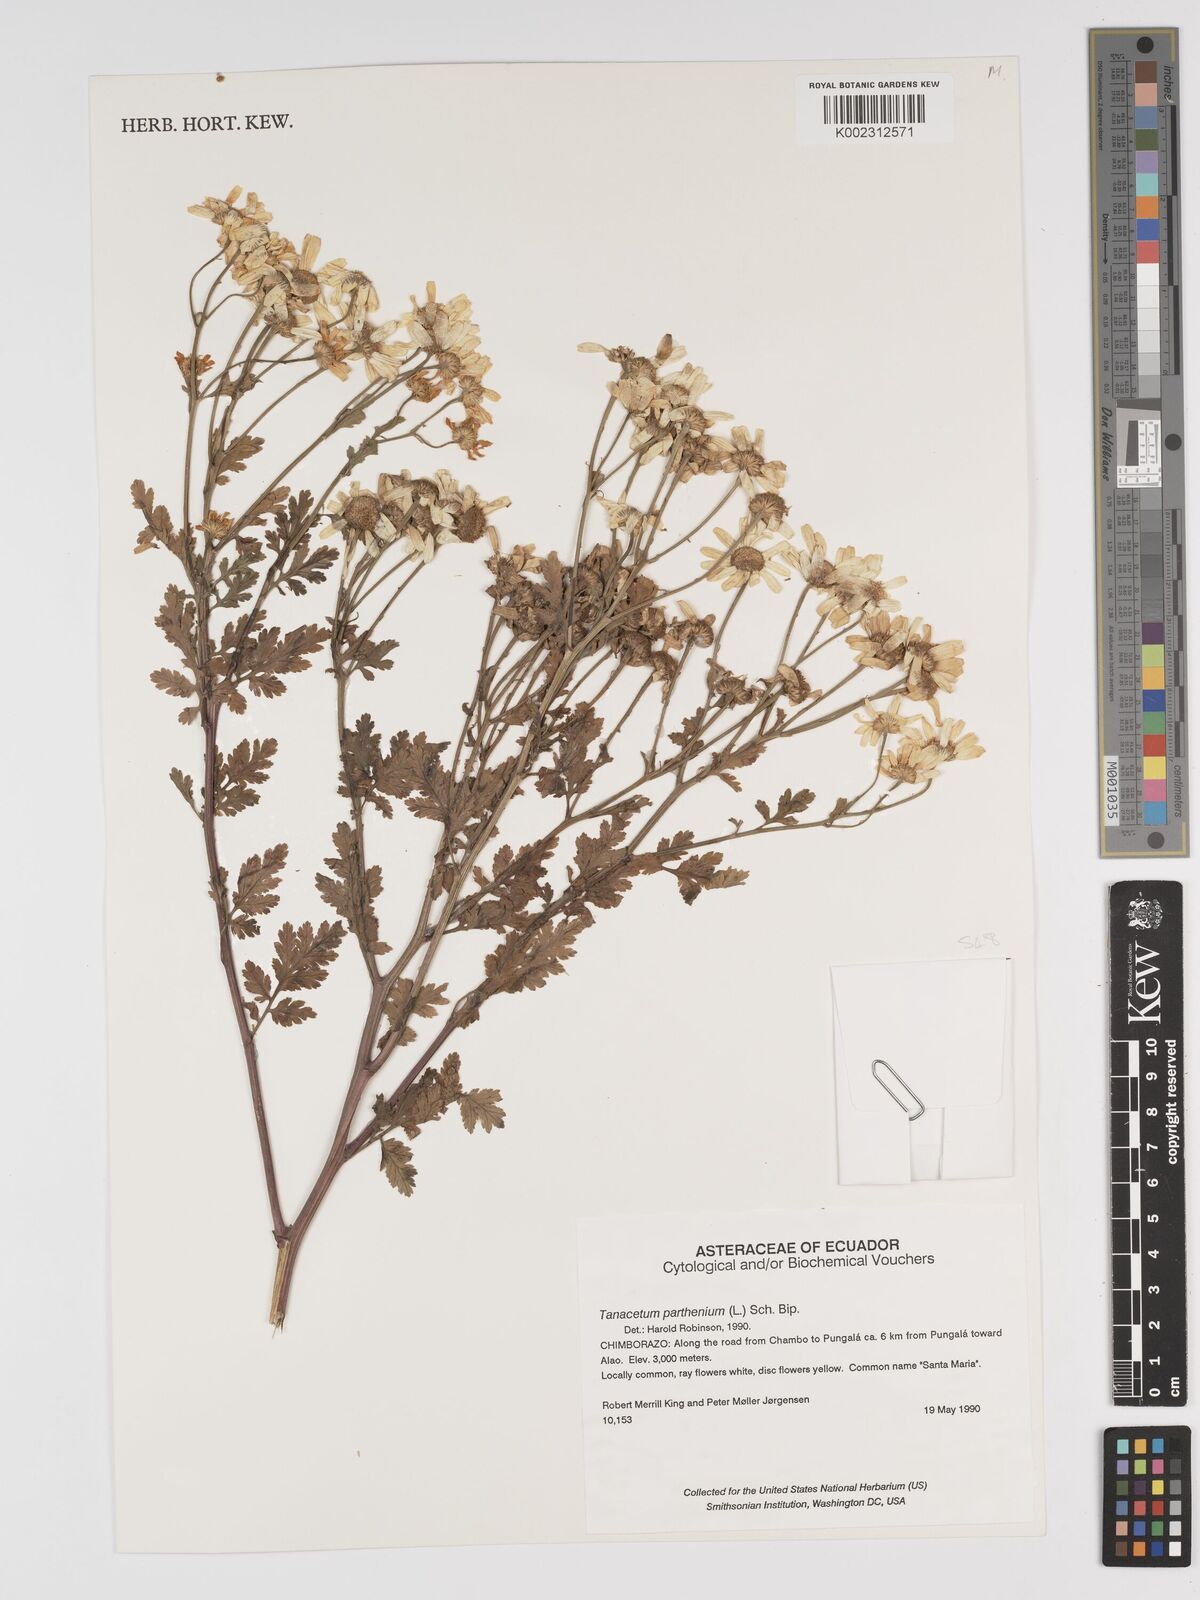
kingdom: Plantae
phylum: Tracheophyta
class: Magnoliopsida
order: Asterales
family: Asteraceae
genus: Tanacetum
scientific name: Tanacetum parthenium
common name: Feverfew
